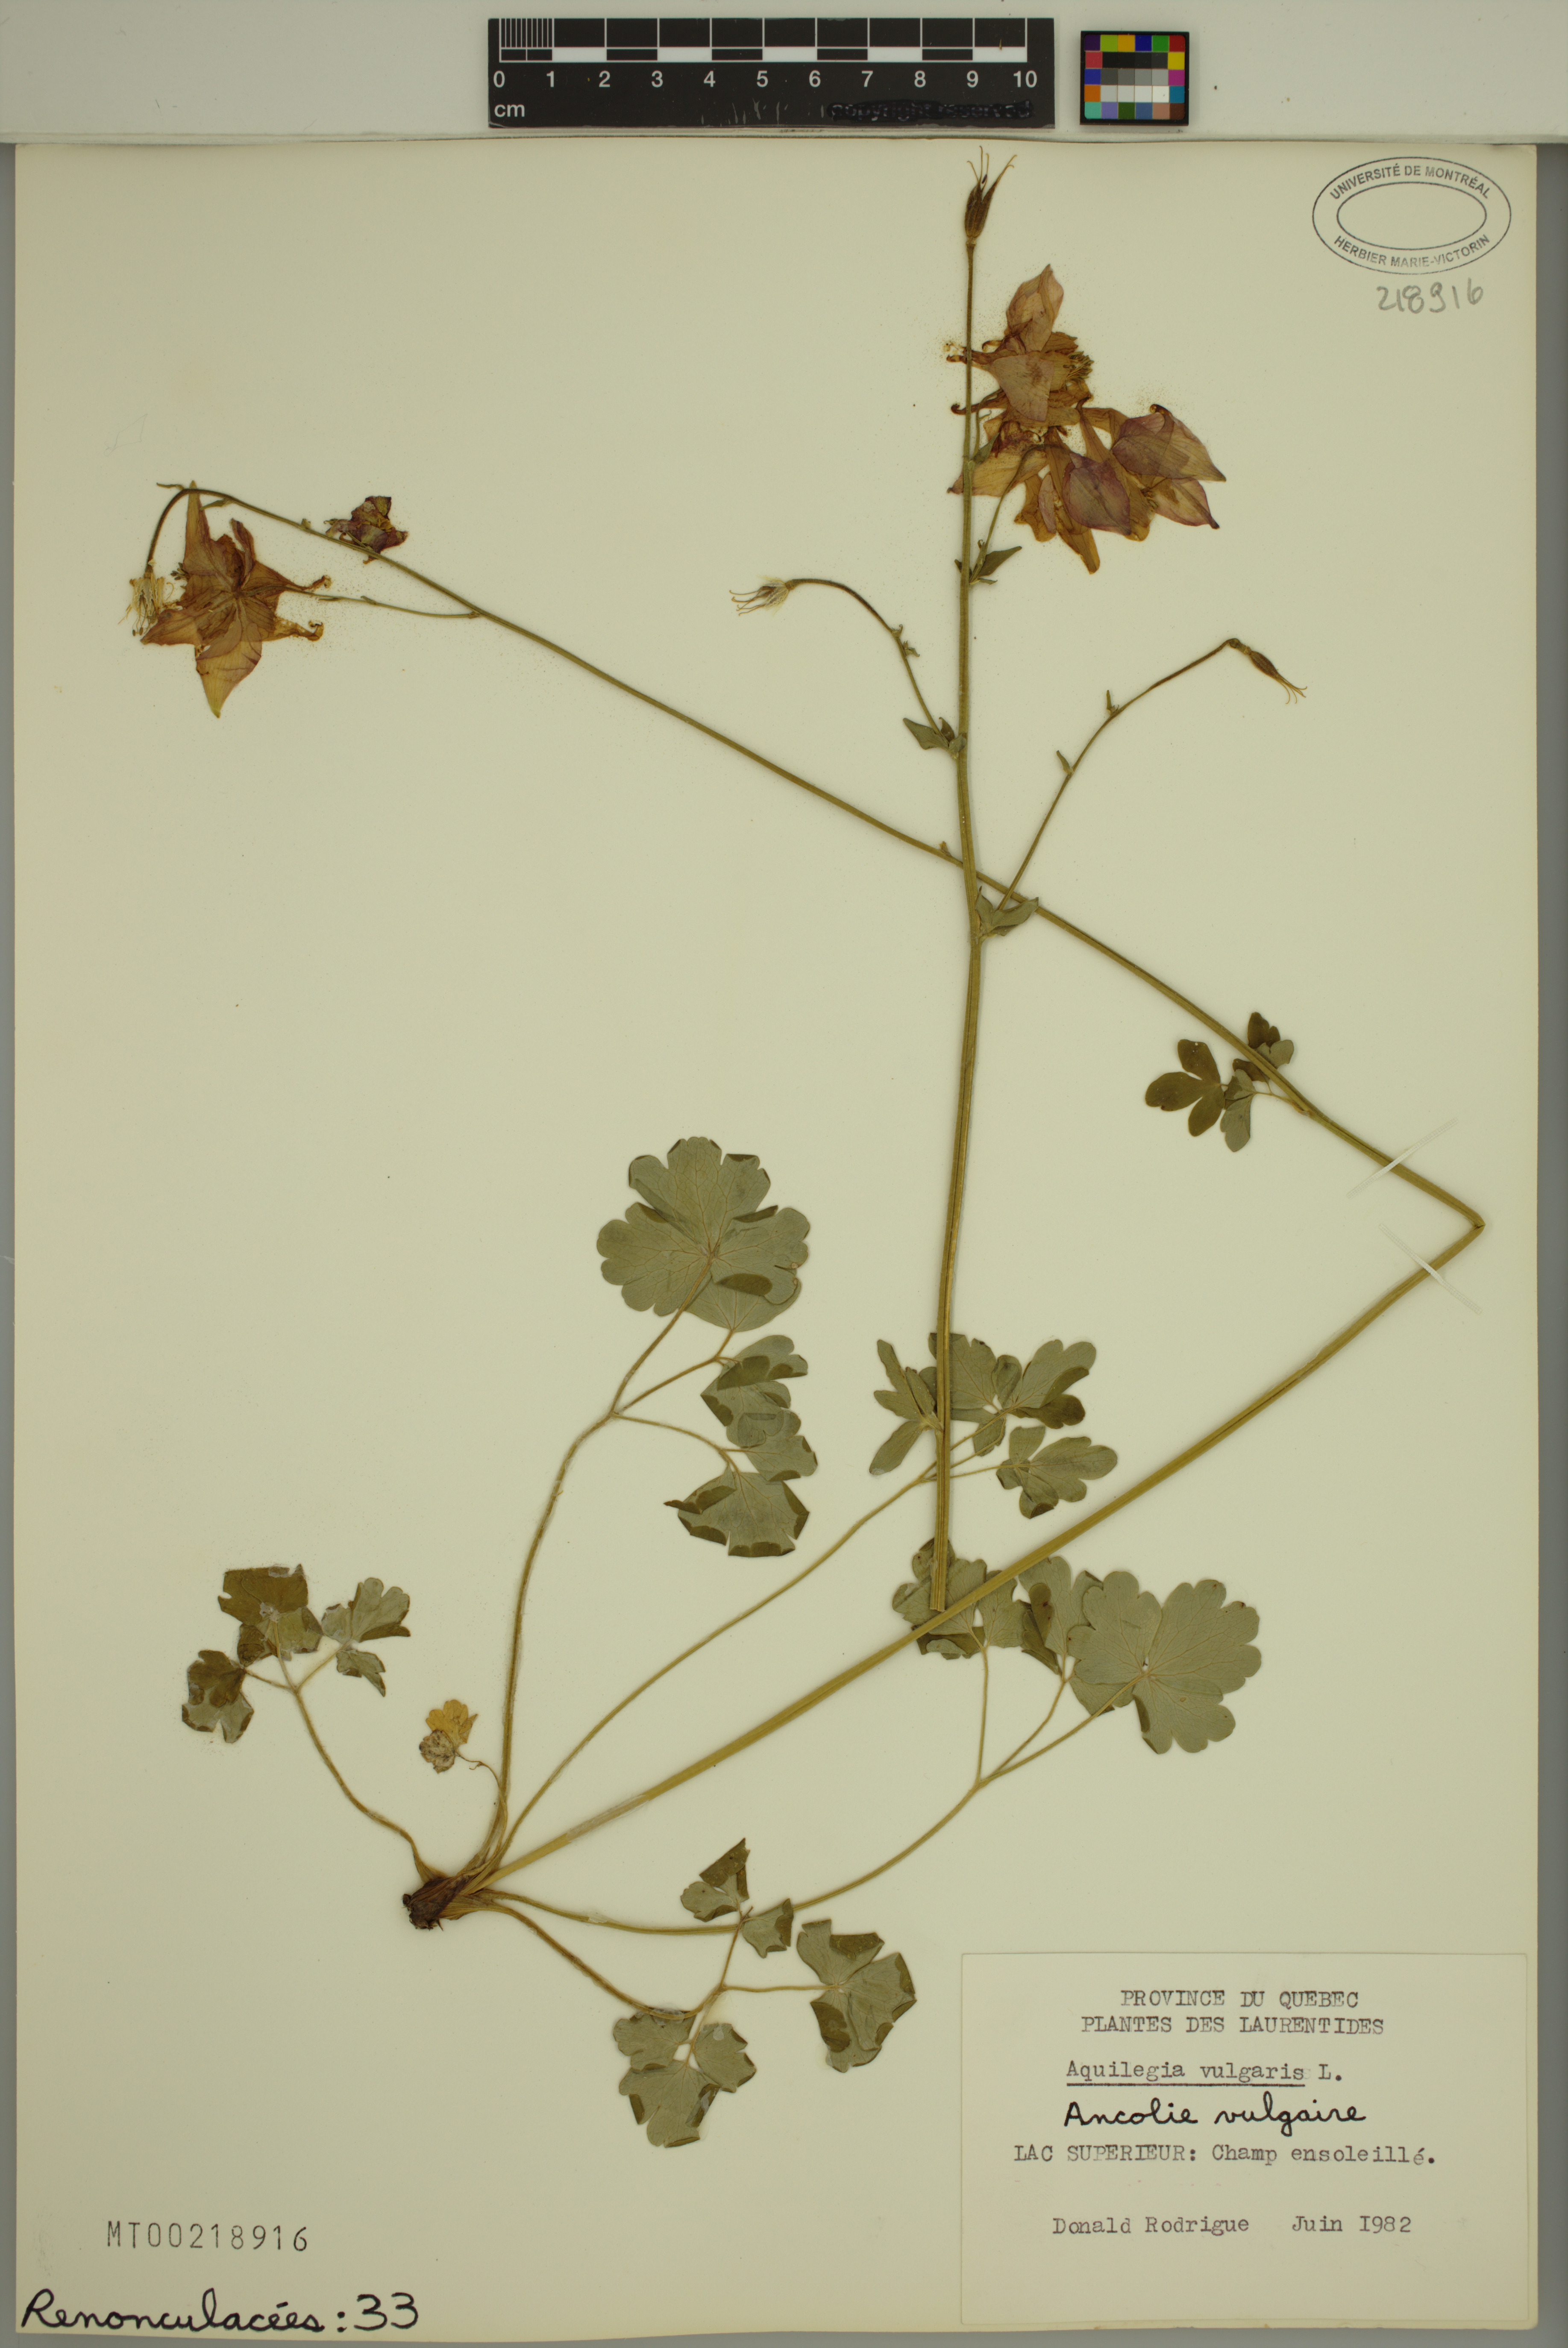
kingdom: Plantae
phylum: Tracheophyta
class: Magnoliopsida
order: Ranunculales
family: Ranunculaceae
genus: Aquilegia
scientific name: Aquilegia vulgaris
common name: Columbine
